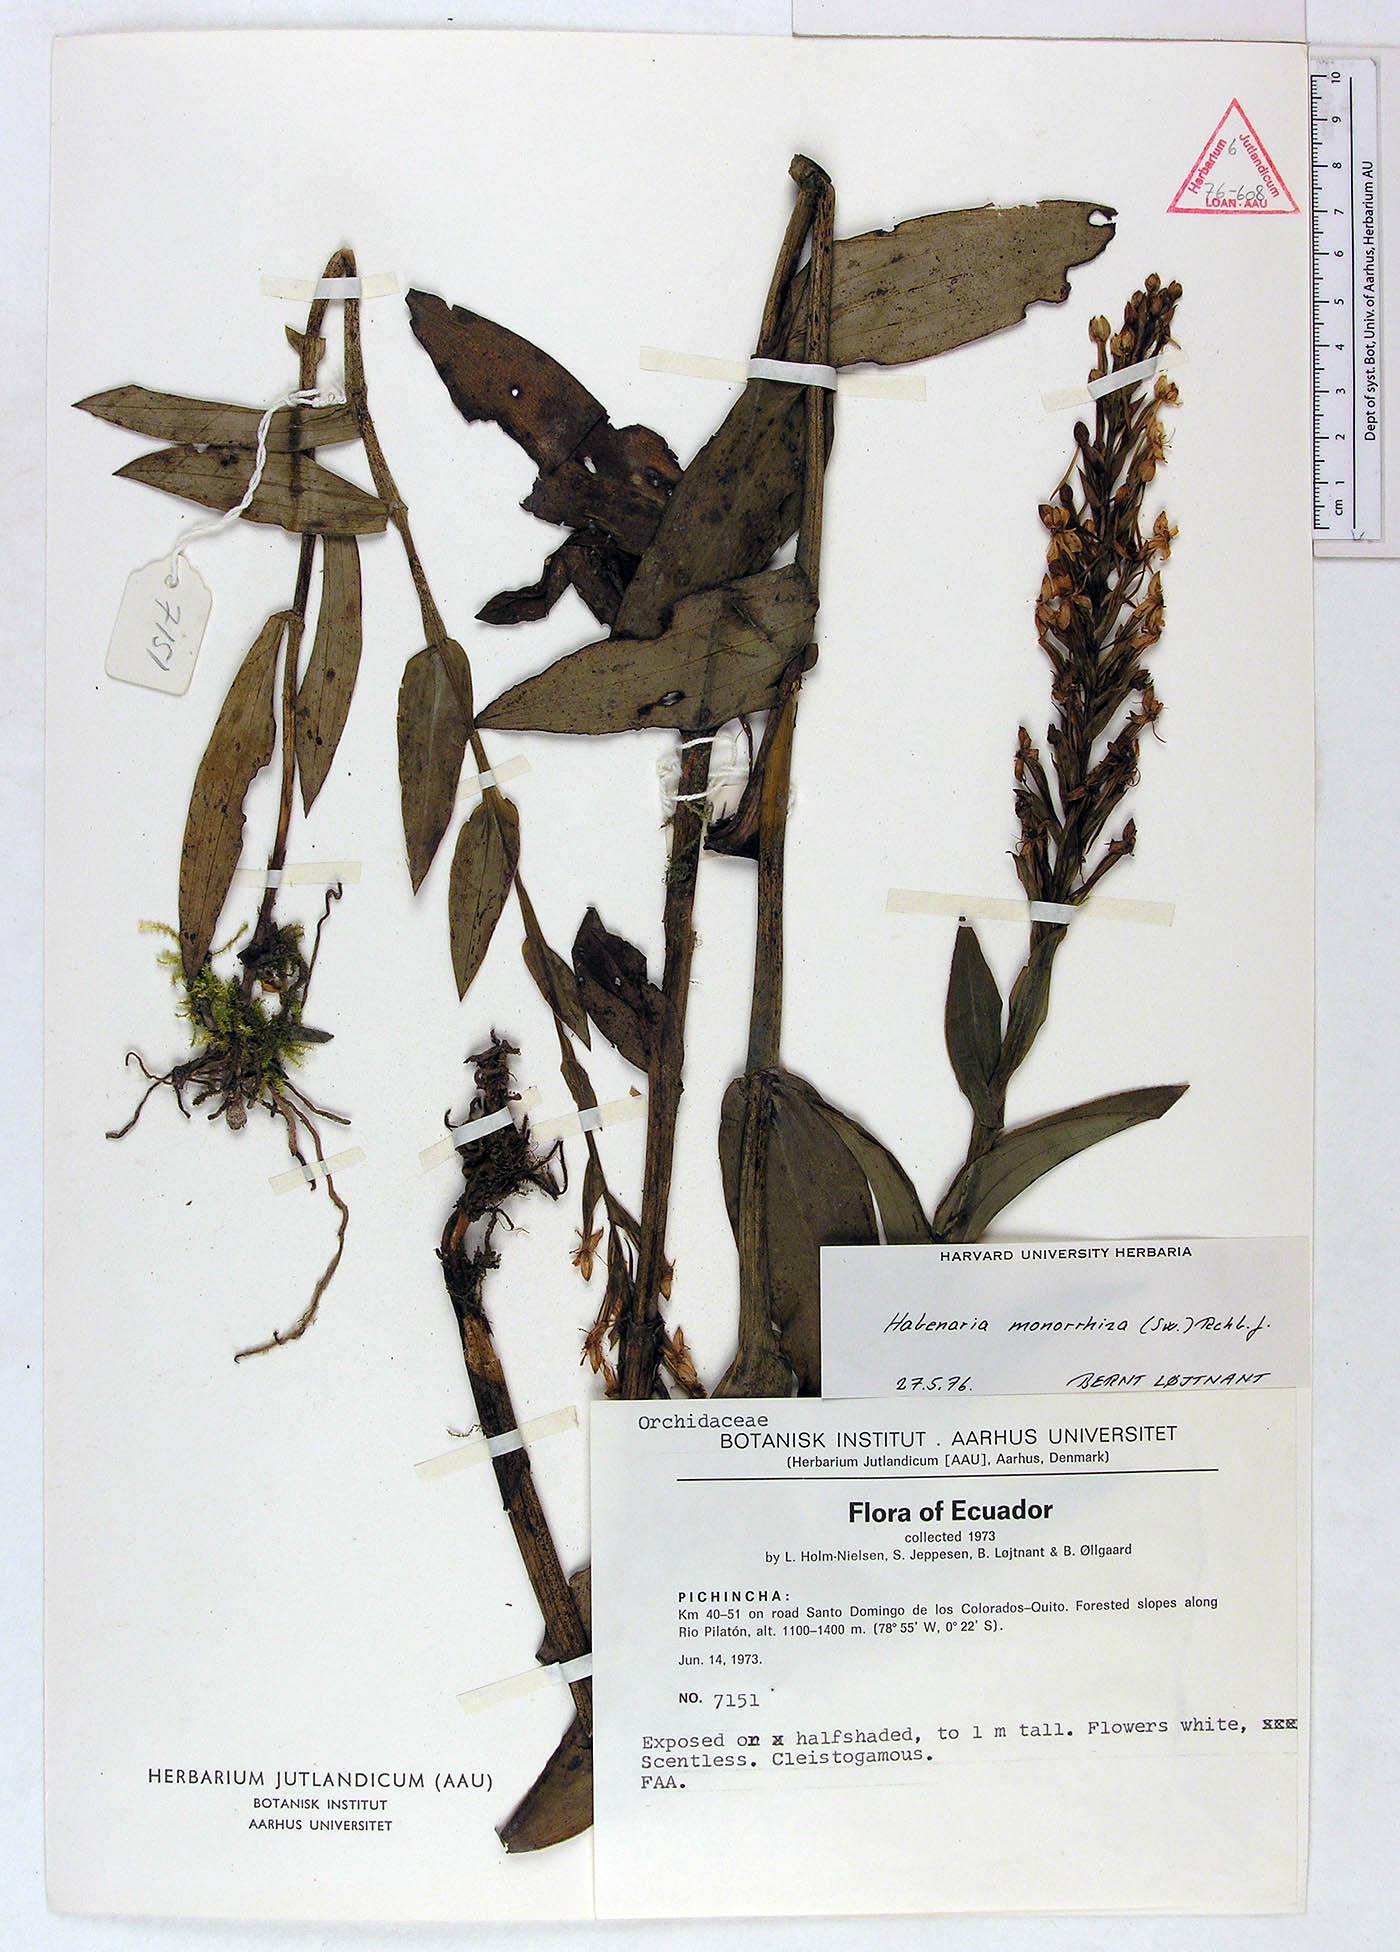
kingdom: Plantae
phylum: Tracheophyta
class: Liliopsida
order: Asparagales
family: Orchidaceae
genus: Habenaria
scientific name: Habenaria monorrhiza
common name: Tropical bog orchid
